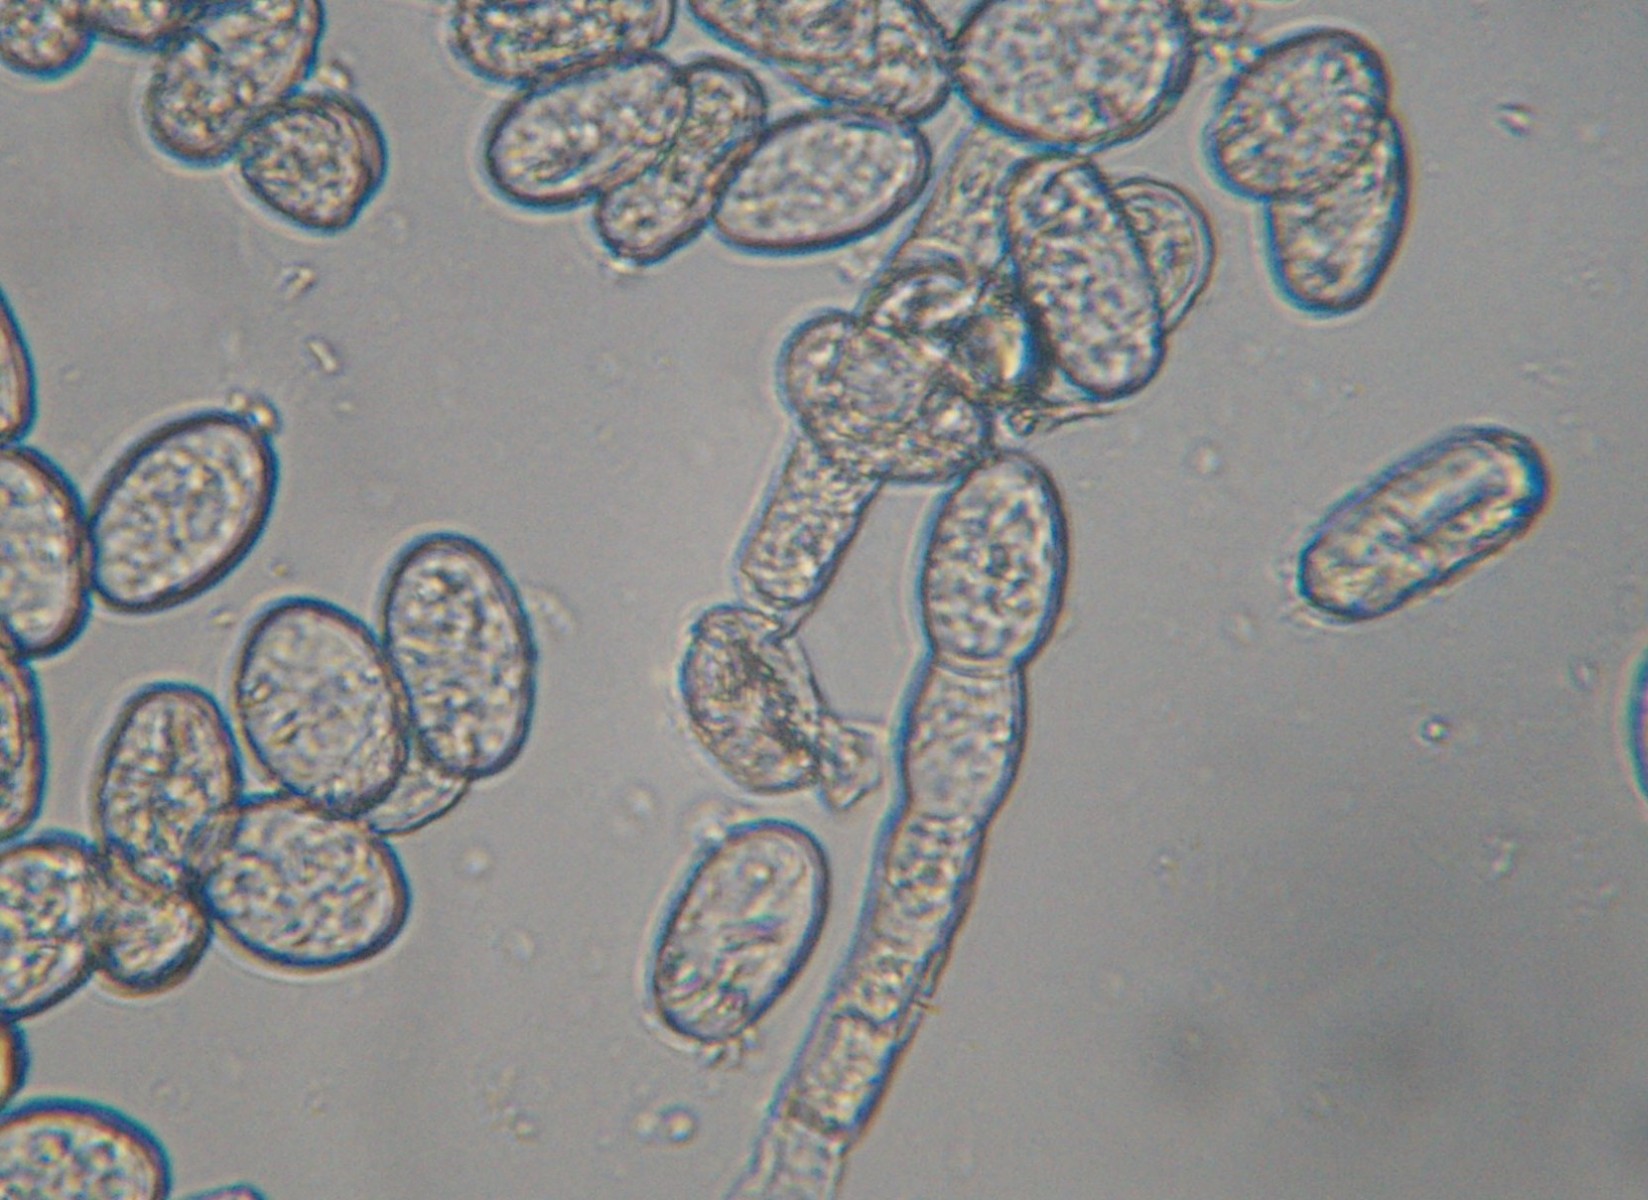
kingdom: Fungi
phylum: Ascomycota
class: Leotiomycetes
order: Helotiales
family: Erysiphaceae
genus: Podosphaera
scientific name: Podosphaera senecionis
